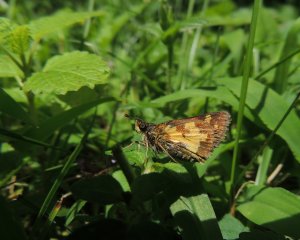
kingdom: Animalia
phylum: Arthropoda
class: Insecta
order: Lepidoptera
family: Hesperiidae
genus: Polites
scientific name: Polites coras
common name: Peck's Skipper
